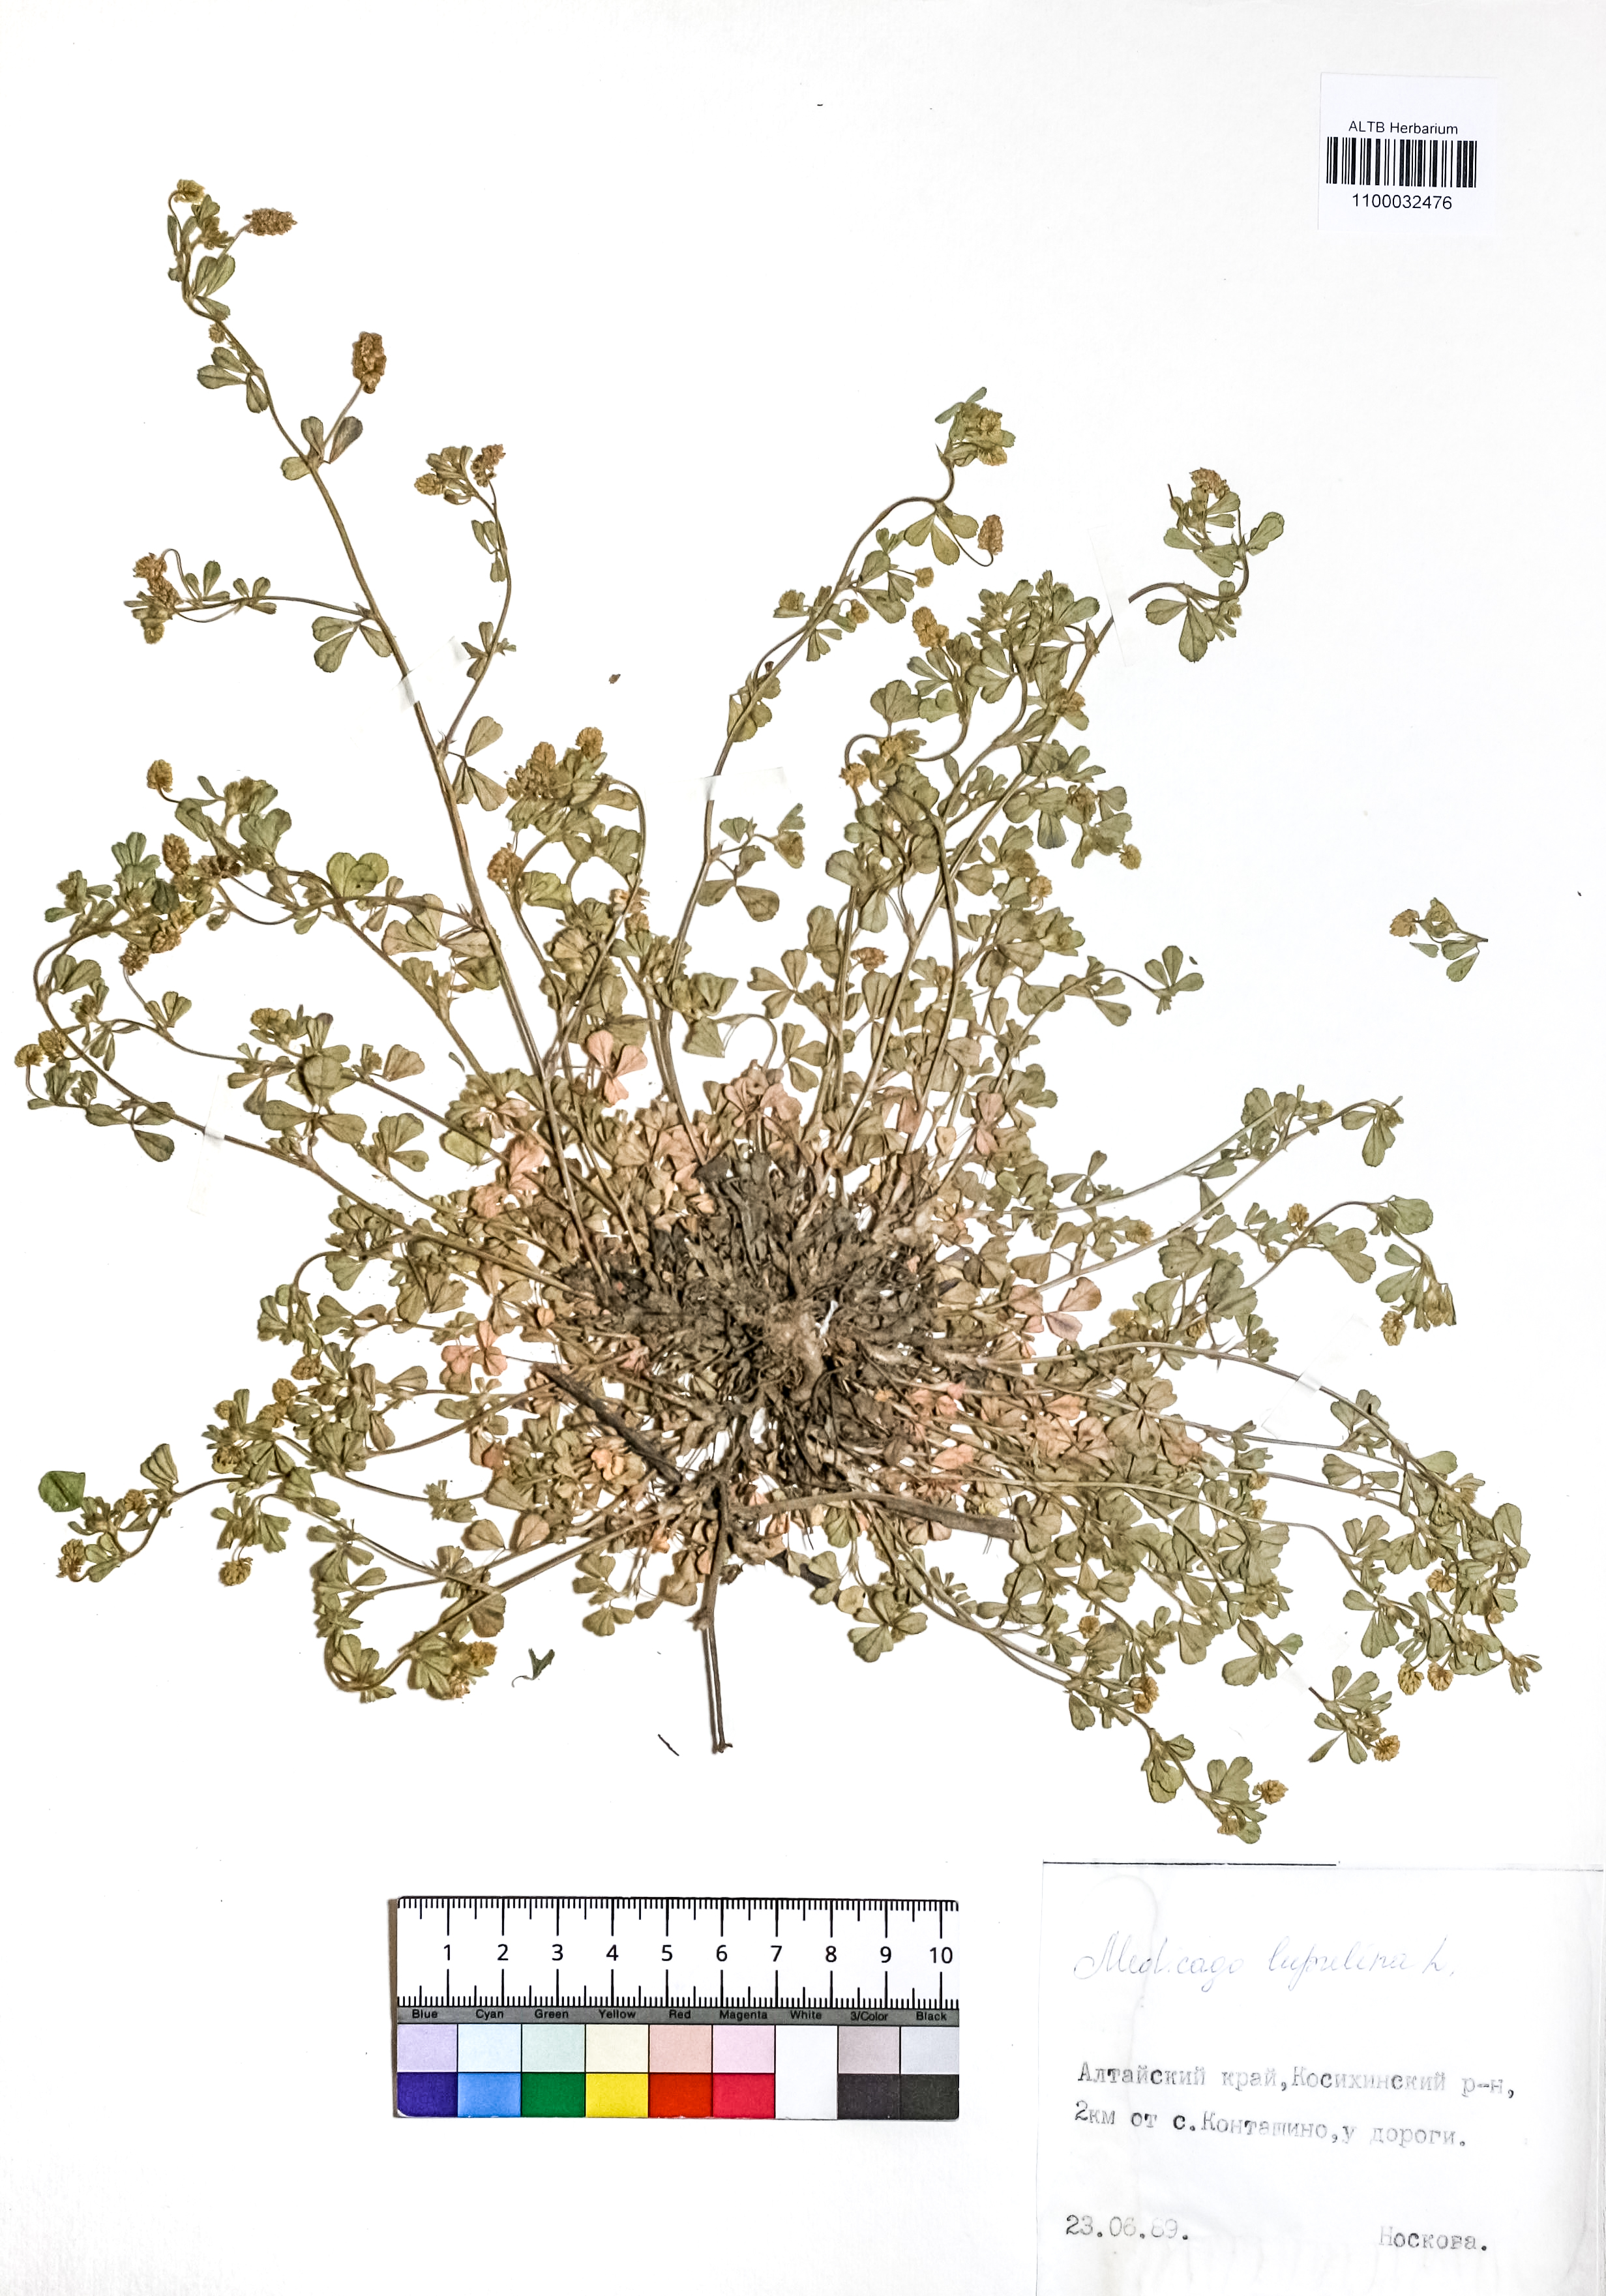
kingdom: Plantae
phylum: Tracheophyta
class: Magnoliopsida
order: Fabales
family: Fabaceae
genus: Medicago
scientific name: Medicago lupulina
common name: Black medick
